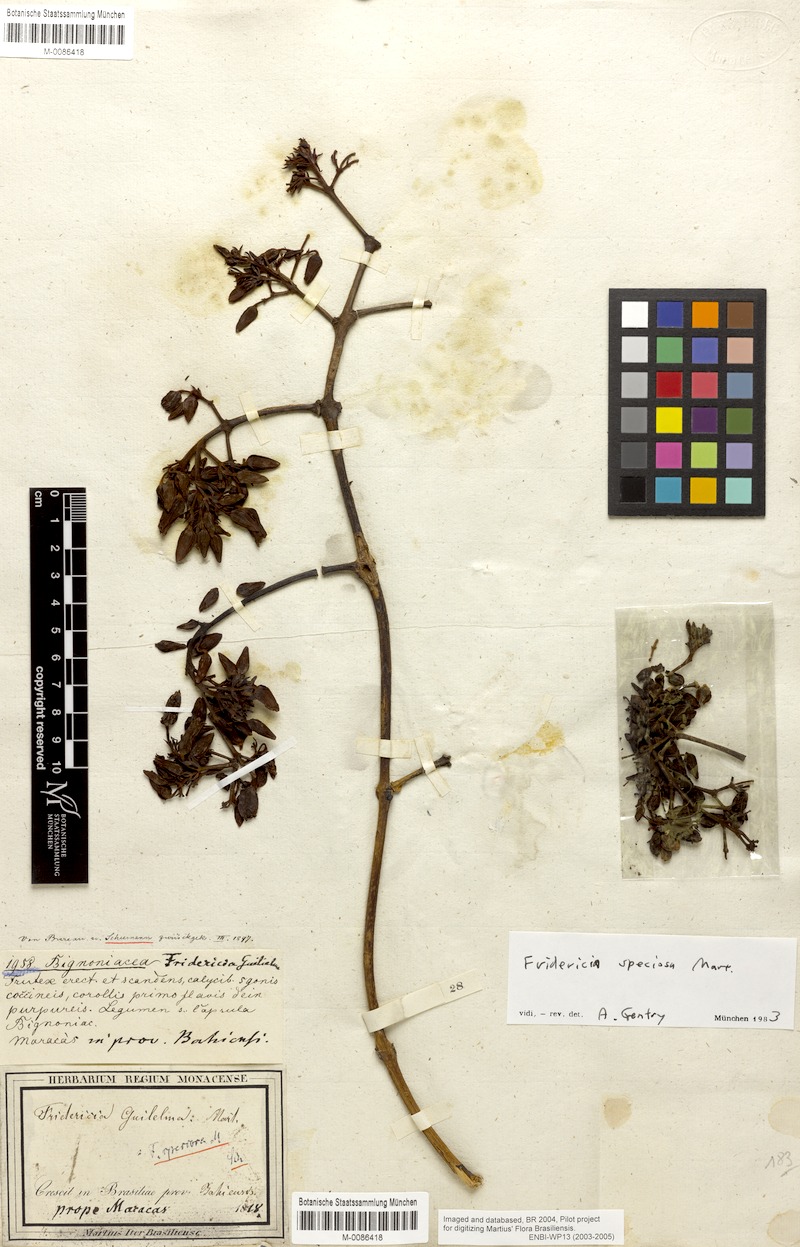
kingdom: Plantae
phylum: Tracheophyta
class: Magnoliopsida
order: Lamiales
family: Bignoniaceae
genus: Fridericia
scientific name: Fridericia speciosa
